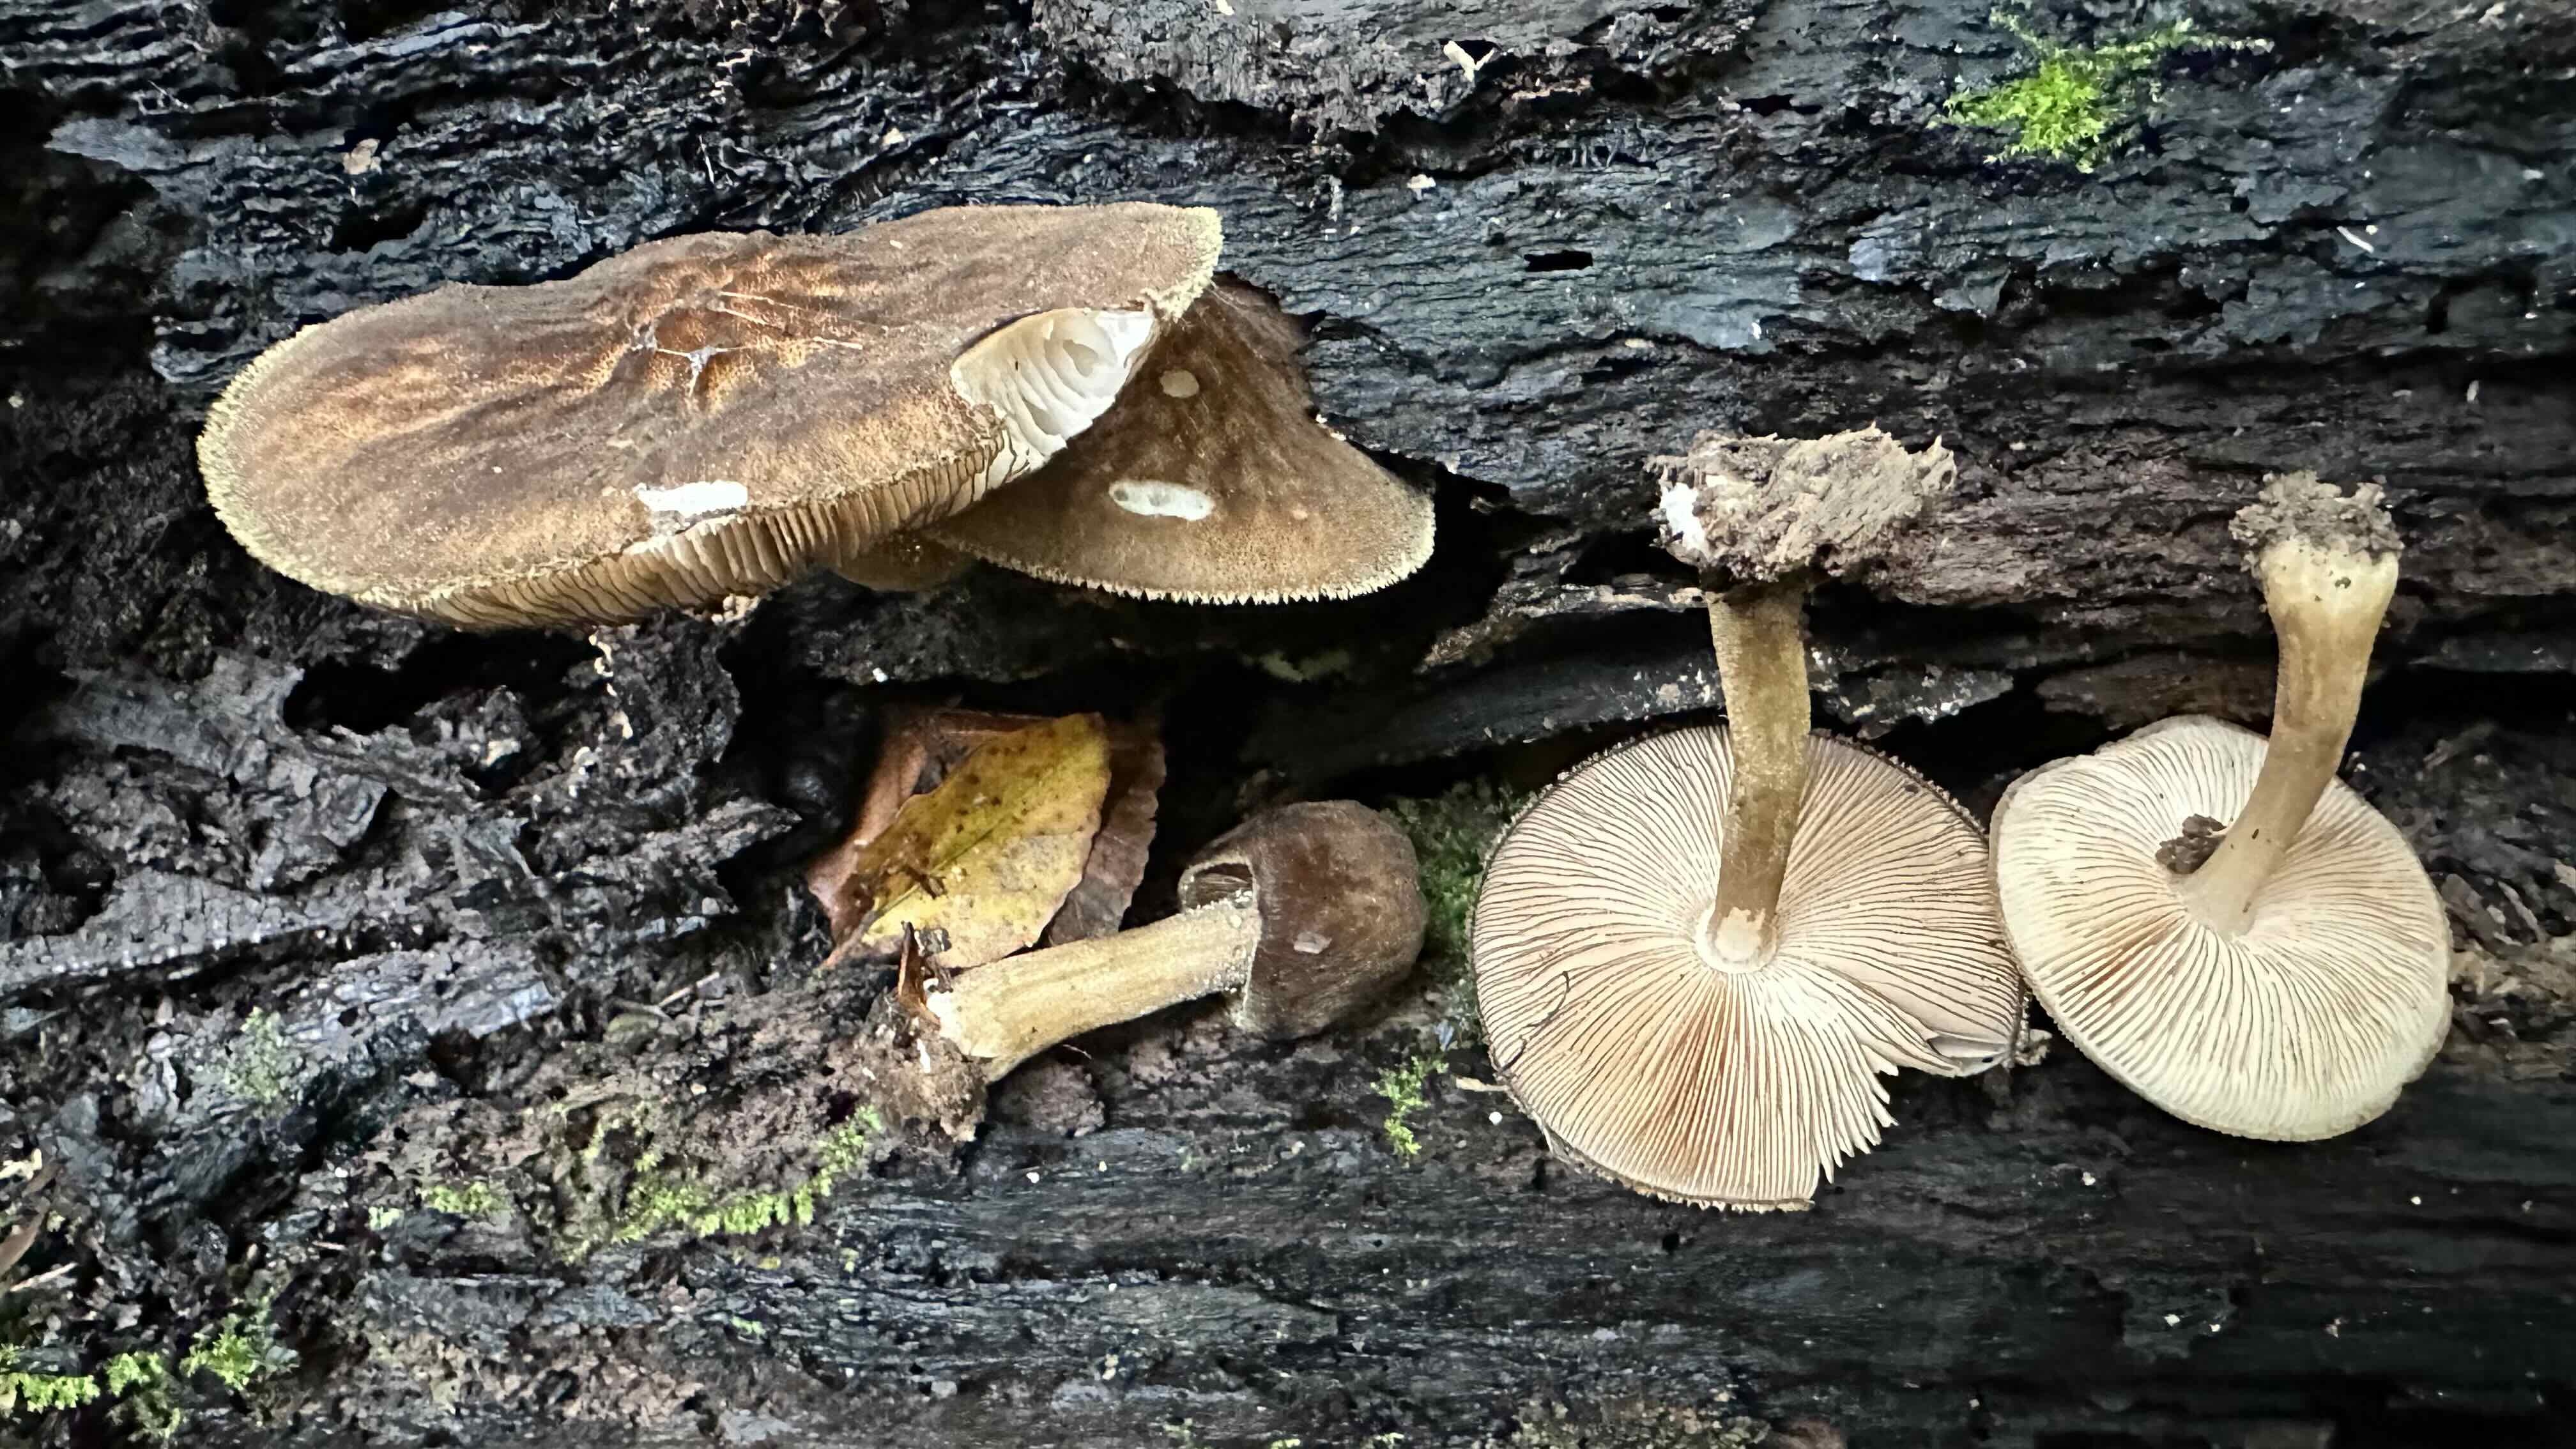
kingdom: Fungi
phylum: Basidiomycota
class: Agaricomycetes
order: Agaricales
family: Pluteaceae
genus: Pluteus
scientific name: Pluteus umbrosus
